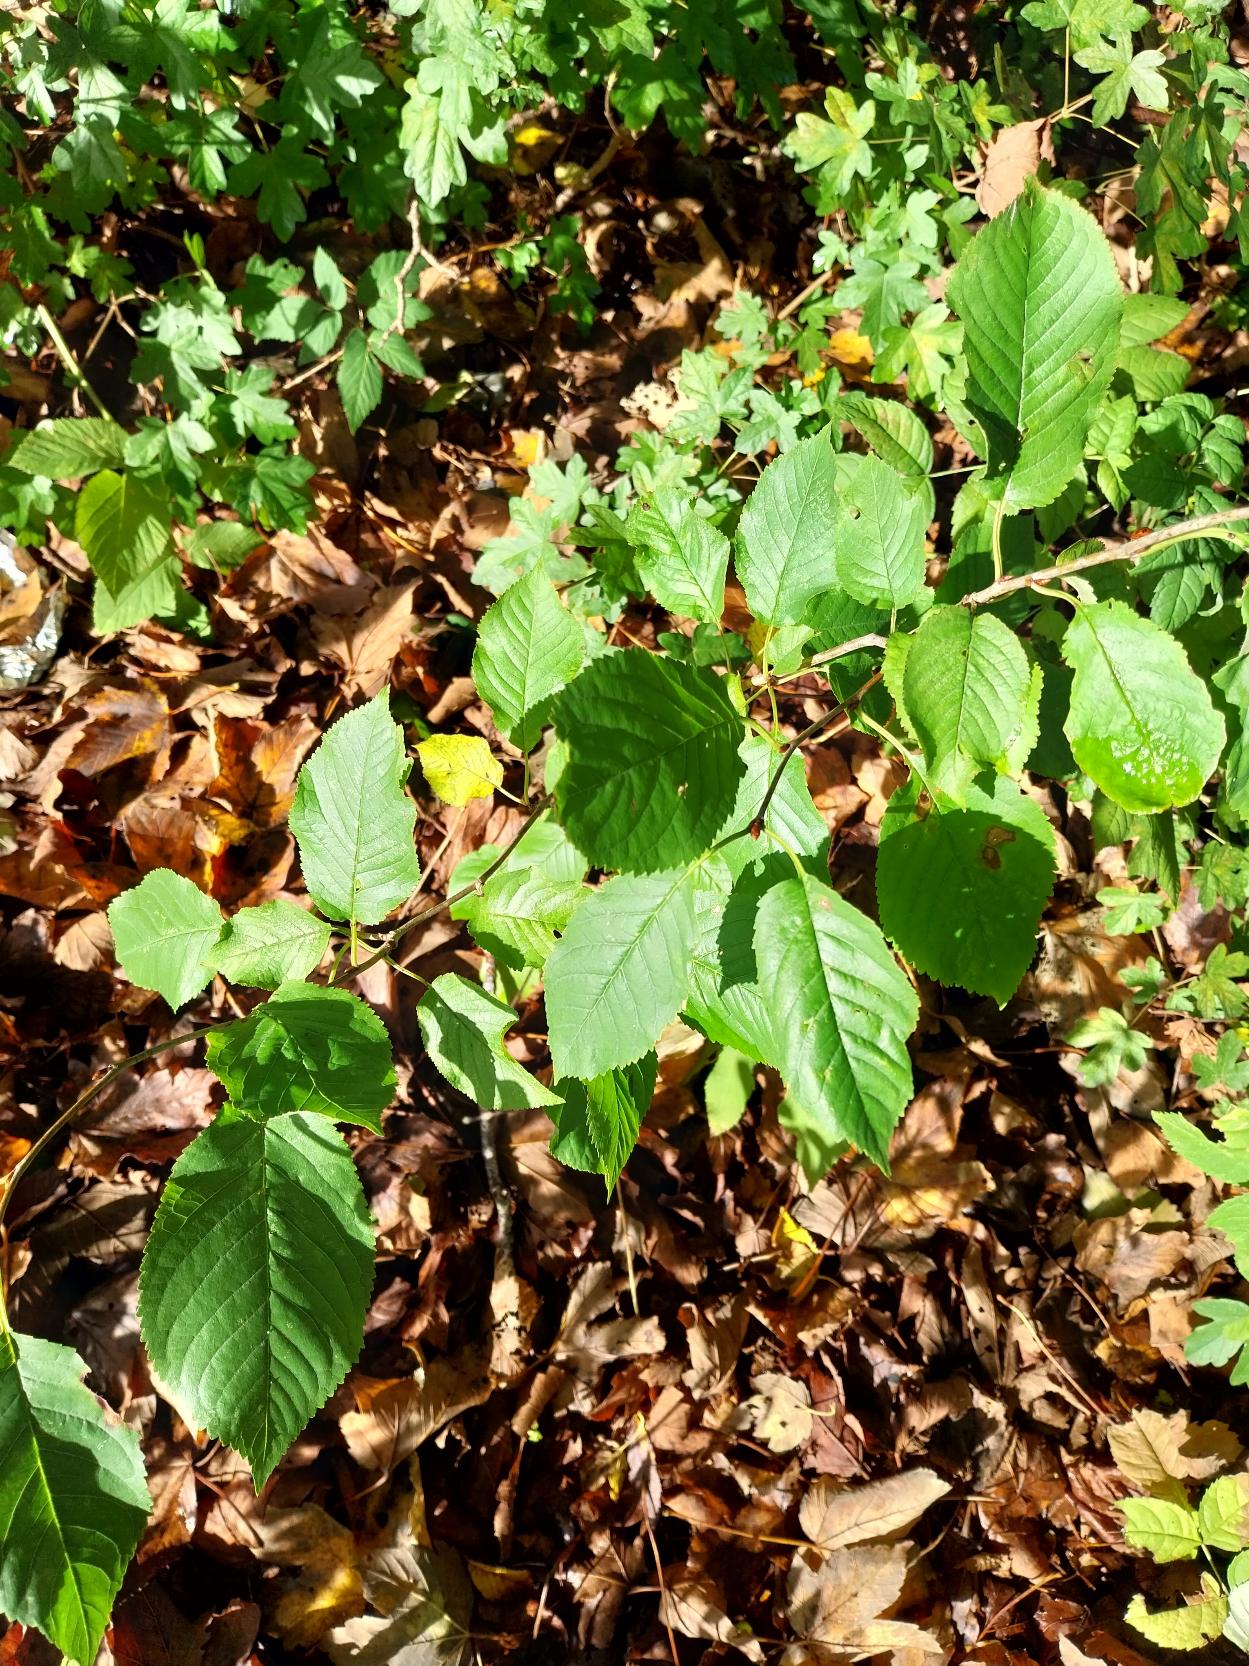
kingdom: Plantae
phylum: Tracheophyta
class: Magnoliopsida
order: Rosales
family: Rosaceae
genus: Prunus
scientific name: Prunus avium
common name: Fugle-kirsebær
